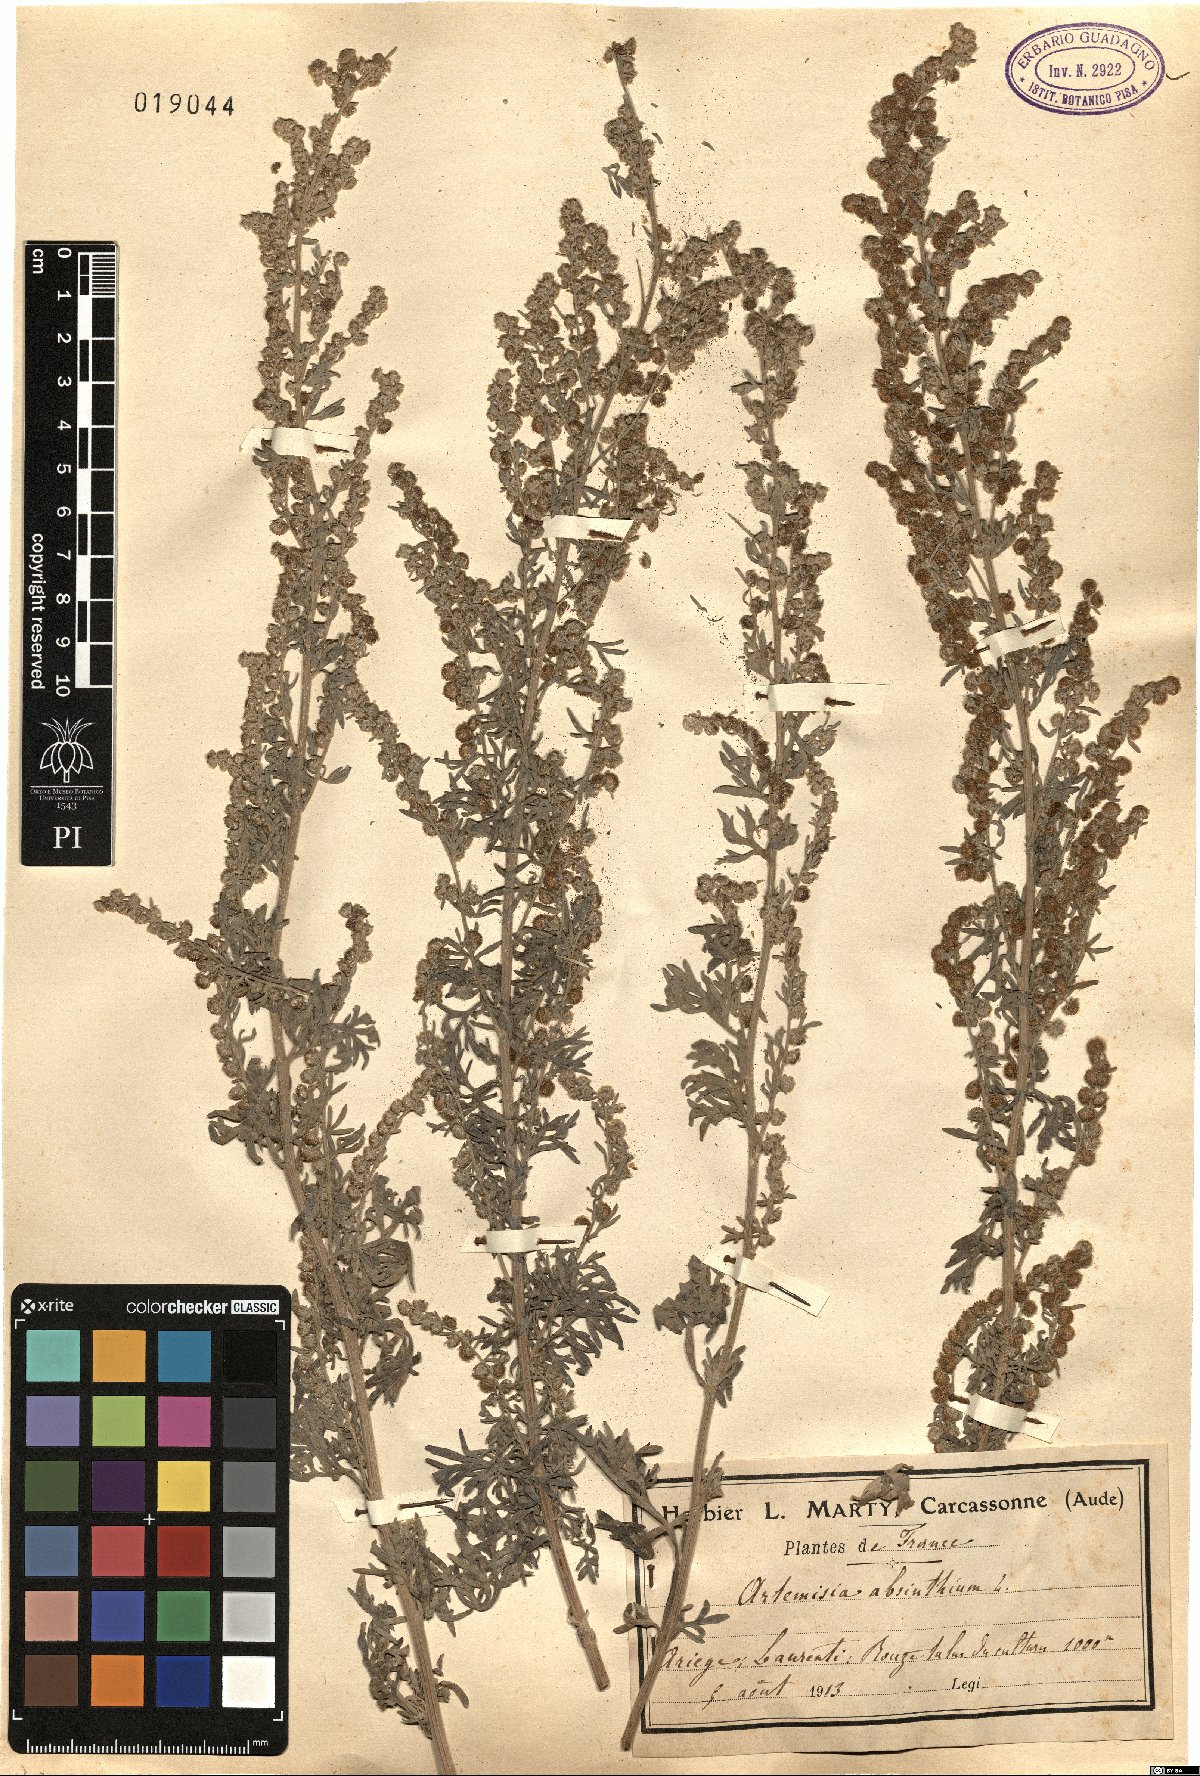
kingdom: Plantae
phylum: Tracheophyta
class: Magnoliopsida
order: Asterales
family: Asteraceae
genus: Artemisia
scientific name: Artemisia absinthium
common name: Wormwood
